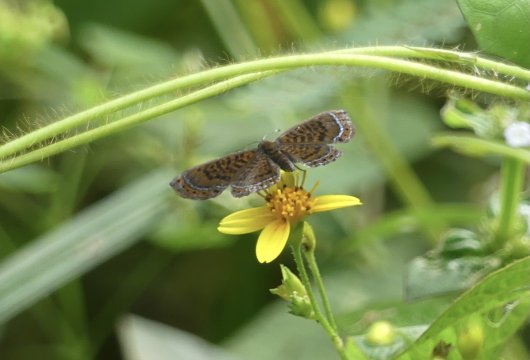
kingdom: Animalia
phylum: Arthropoda
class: Insecta
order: Lepidoptera
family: Riodinidae
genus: Detritivora
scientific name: Detritivora
